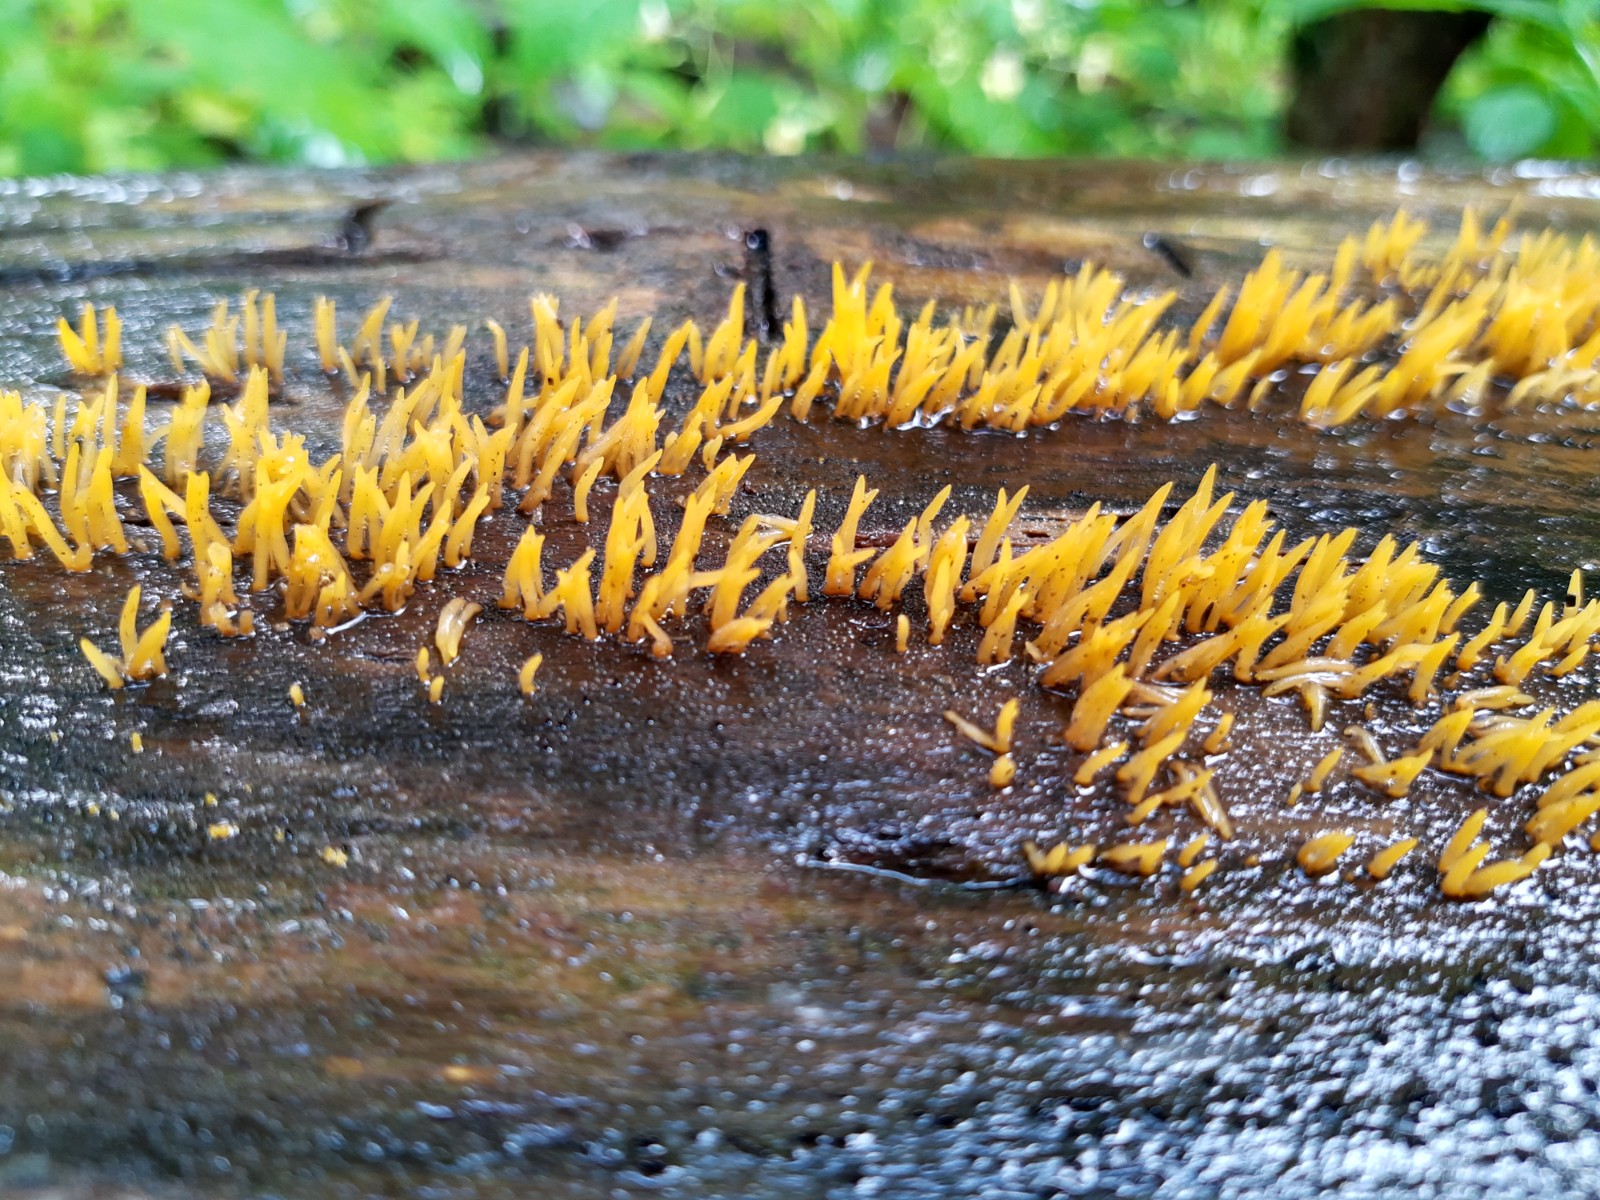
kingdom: Fungi
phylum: Basidiomycota
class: Dacrymycetes
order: Dacrymycetales
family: Dacrymycetaceae
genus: Calocera
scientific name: Calocera cornea
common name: liden guldgaffel
